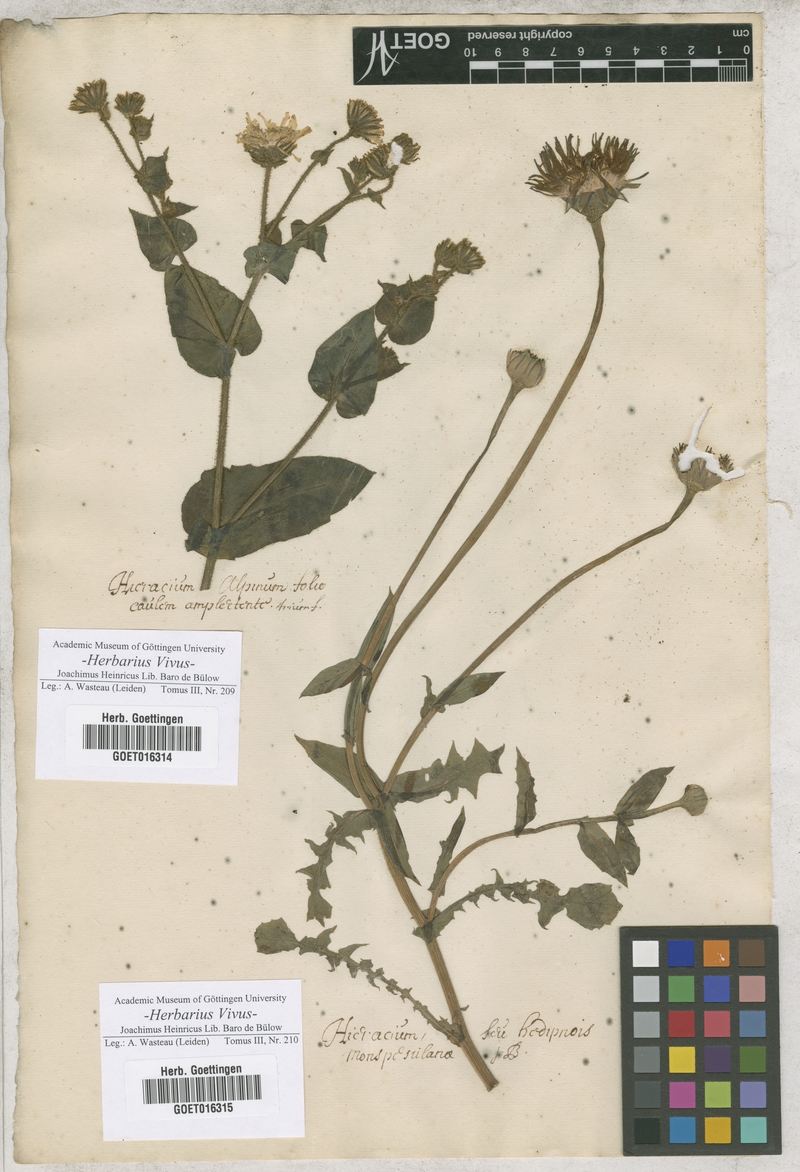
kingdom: Plantae
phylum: Tracheophyta
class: Magnoliopsida
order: Asterales
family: Asteraceae
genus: Hieracium
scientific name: Hieracium
